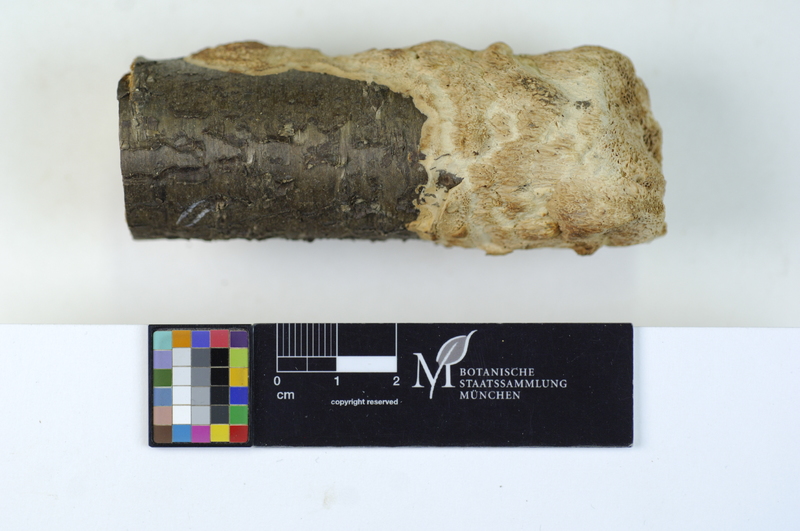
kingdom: Plantae
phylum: Tracheophyta
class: Magnoliopsida
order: Rosales
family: Rosaceae
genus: Prunus
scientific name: Prunus avium
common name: Sweet cherry
